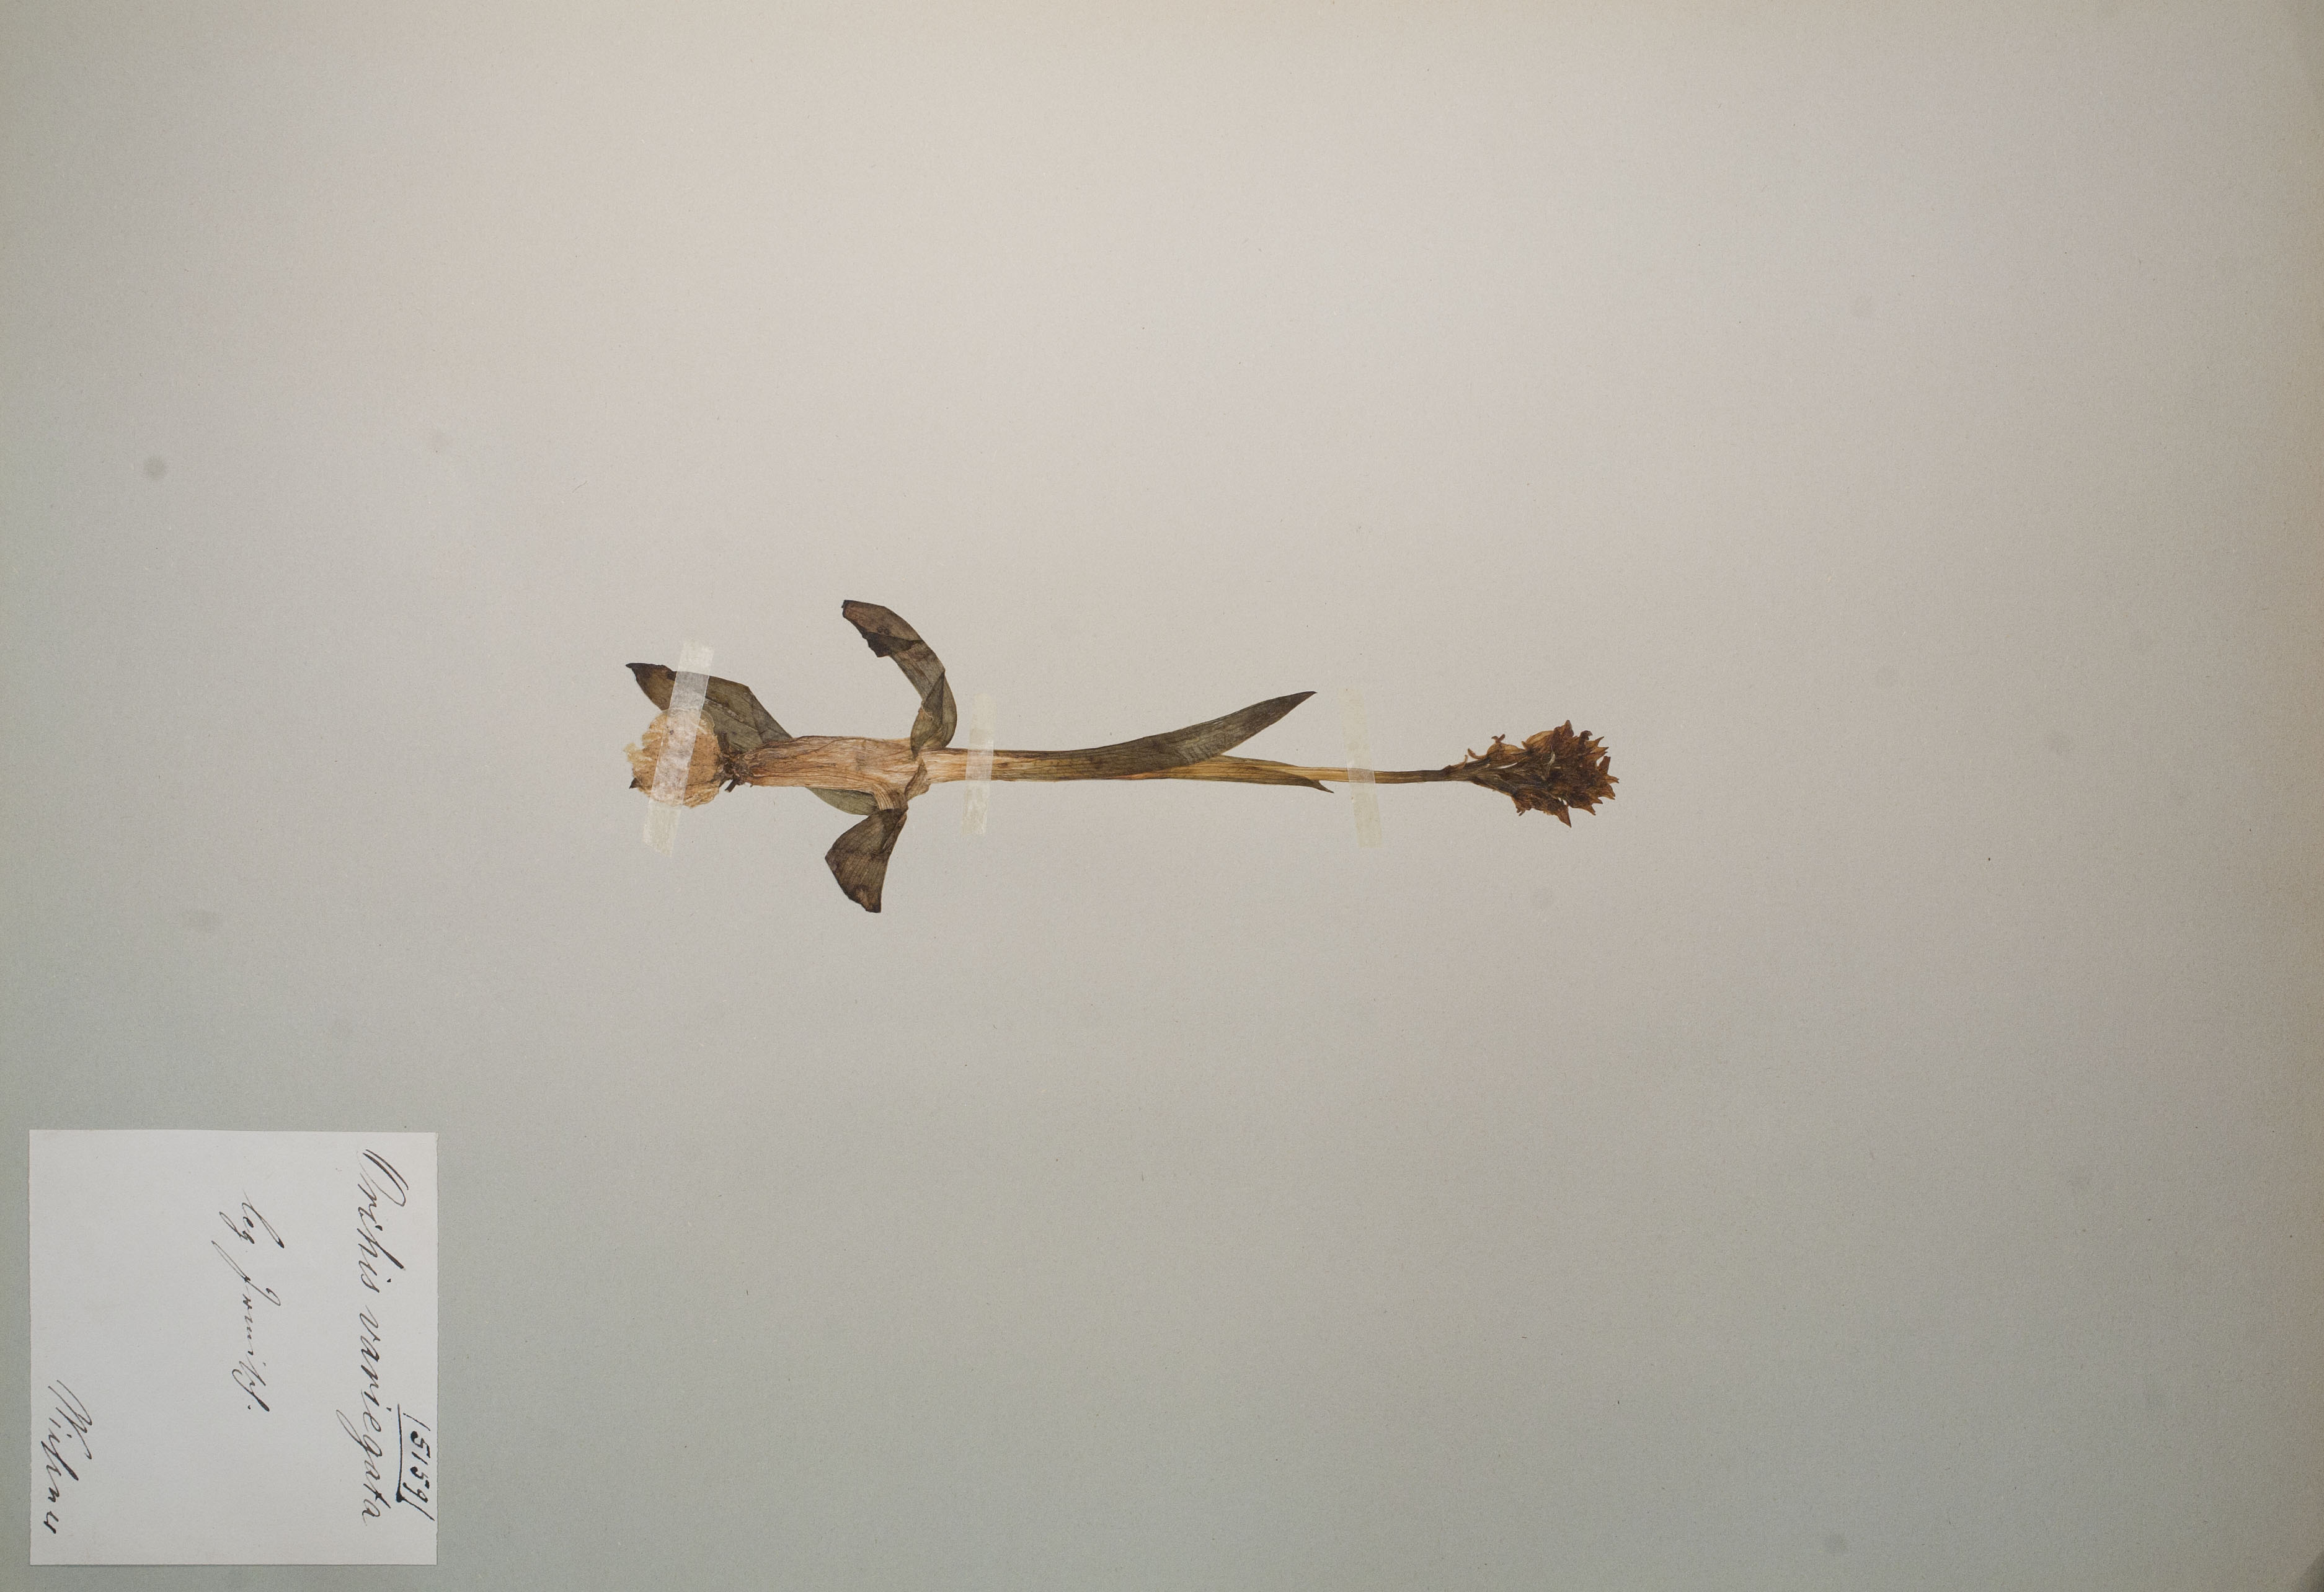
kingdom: Plantae
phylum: Tracheophyta
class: Liliopsida
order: Asparagales
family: Orchidaceae
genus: Neotinea
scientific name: Neotinea tridentata
